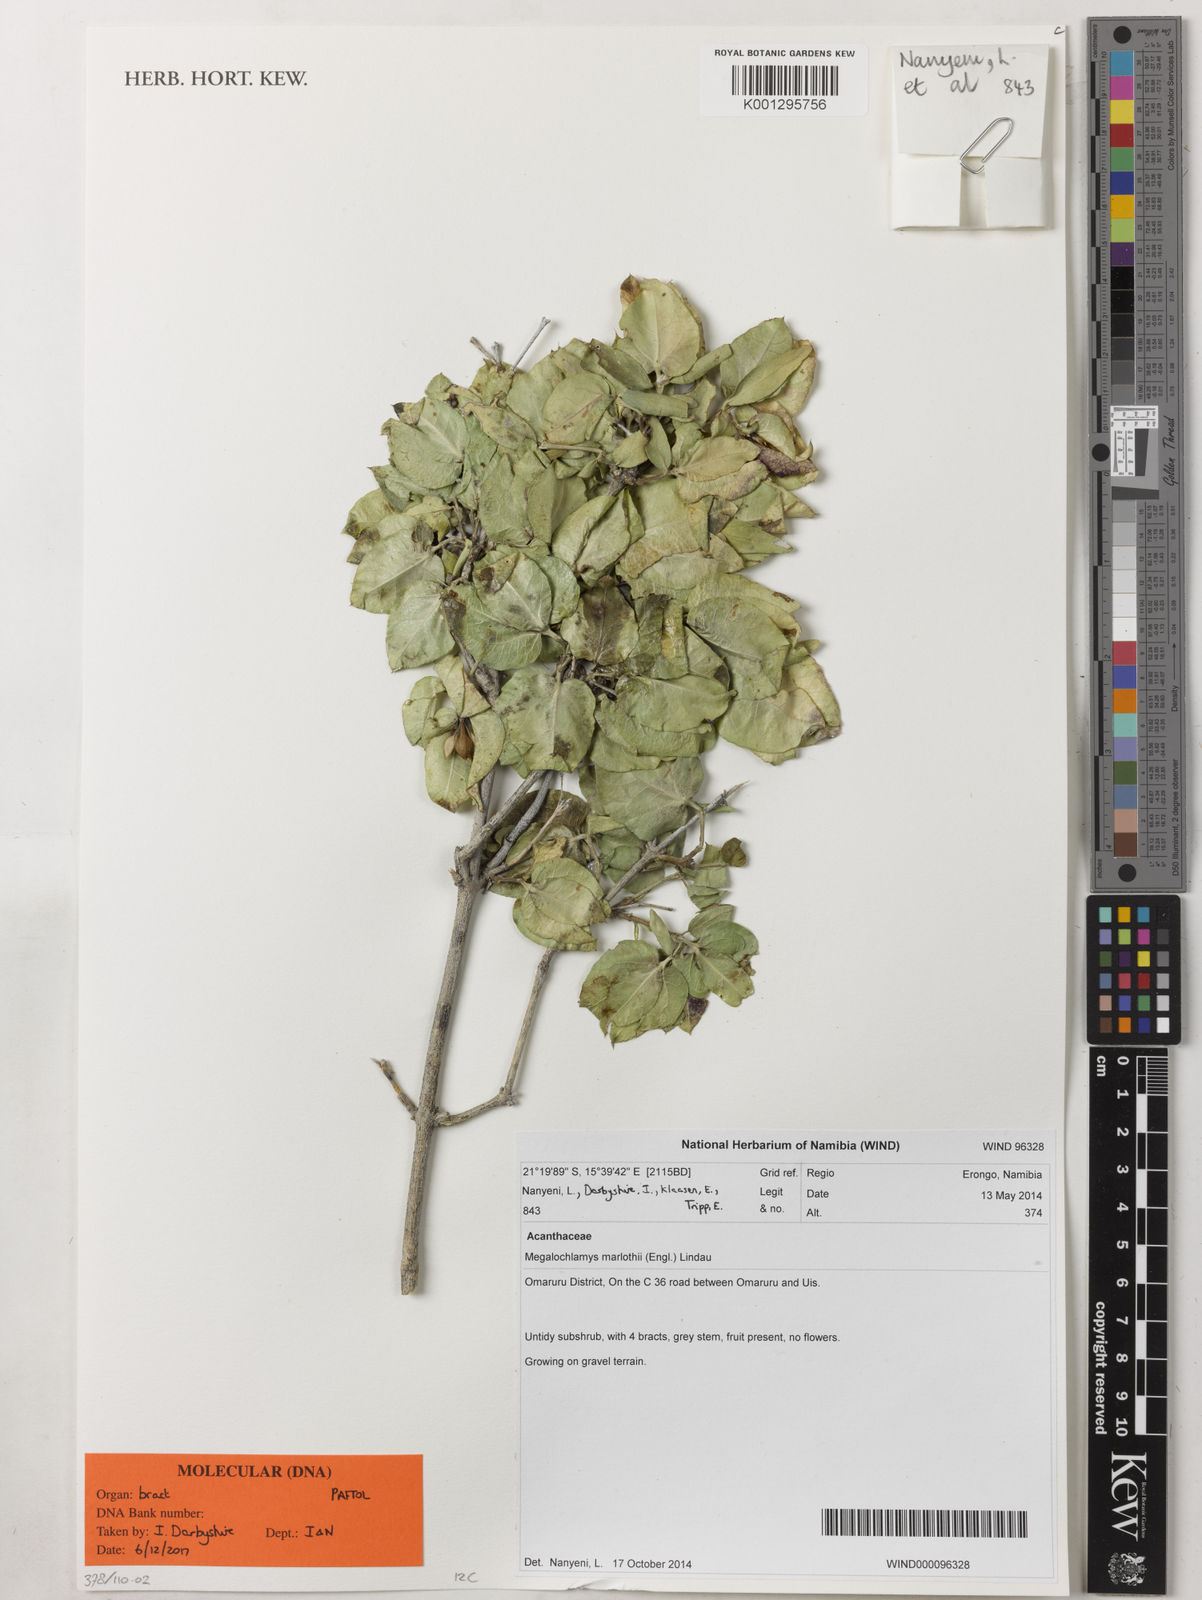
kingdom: Plantae
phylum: Tracheophyta
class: Magnoliopsida
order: Lamiales
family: Acanthaceae
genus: Megalochlamys
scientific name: Megalochlamys marlothii
